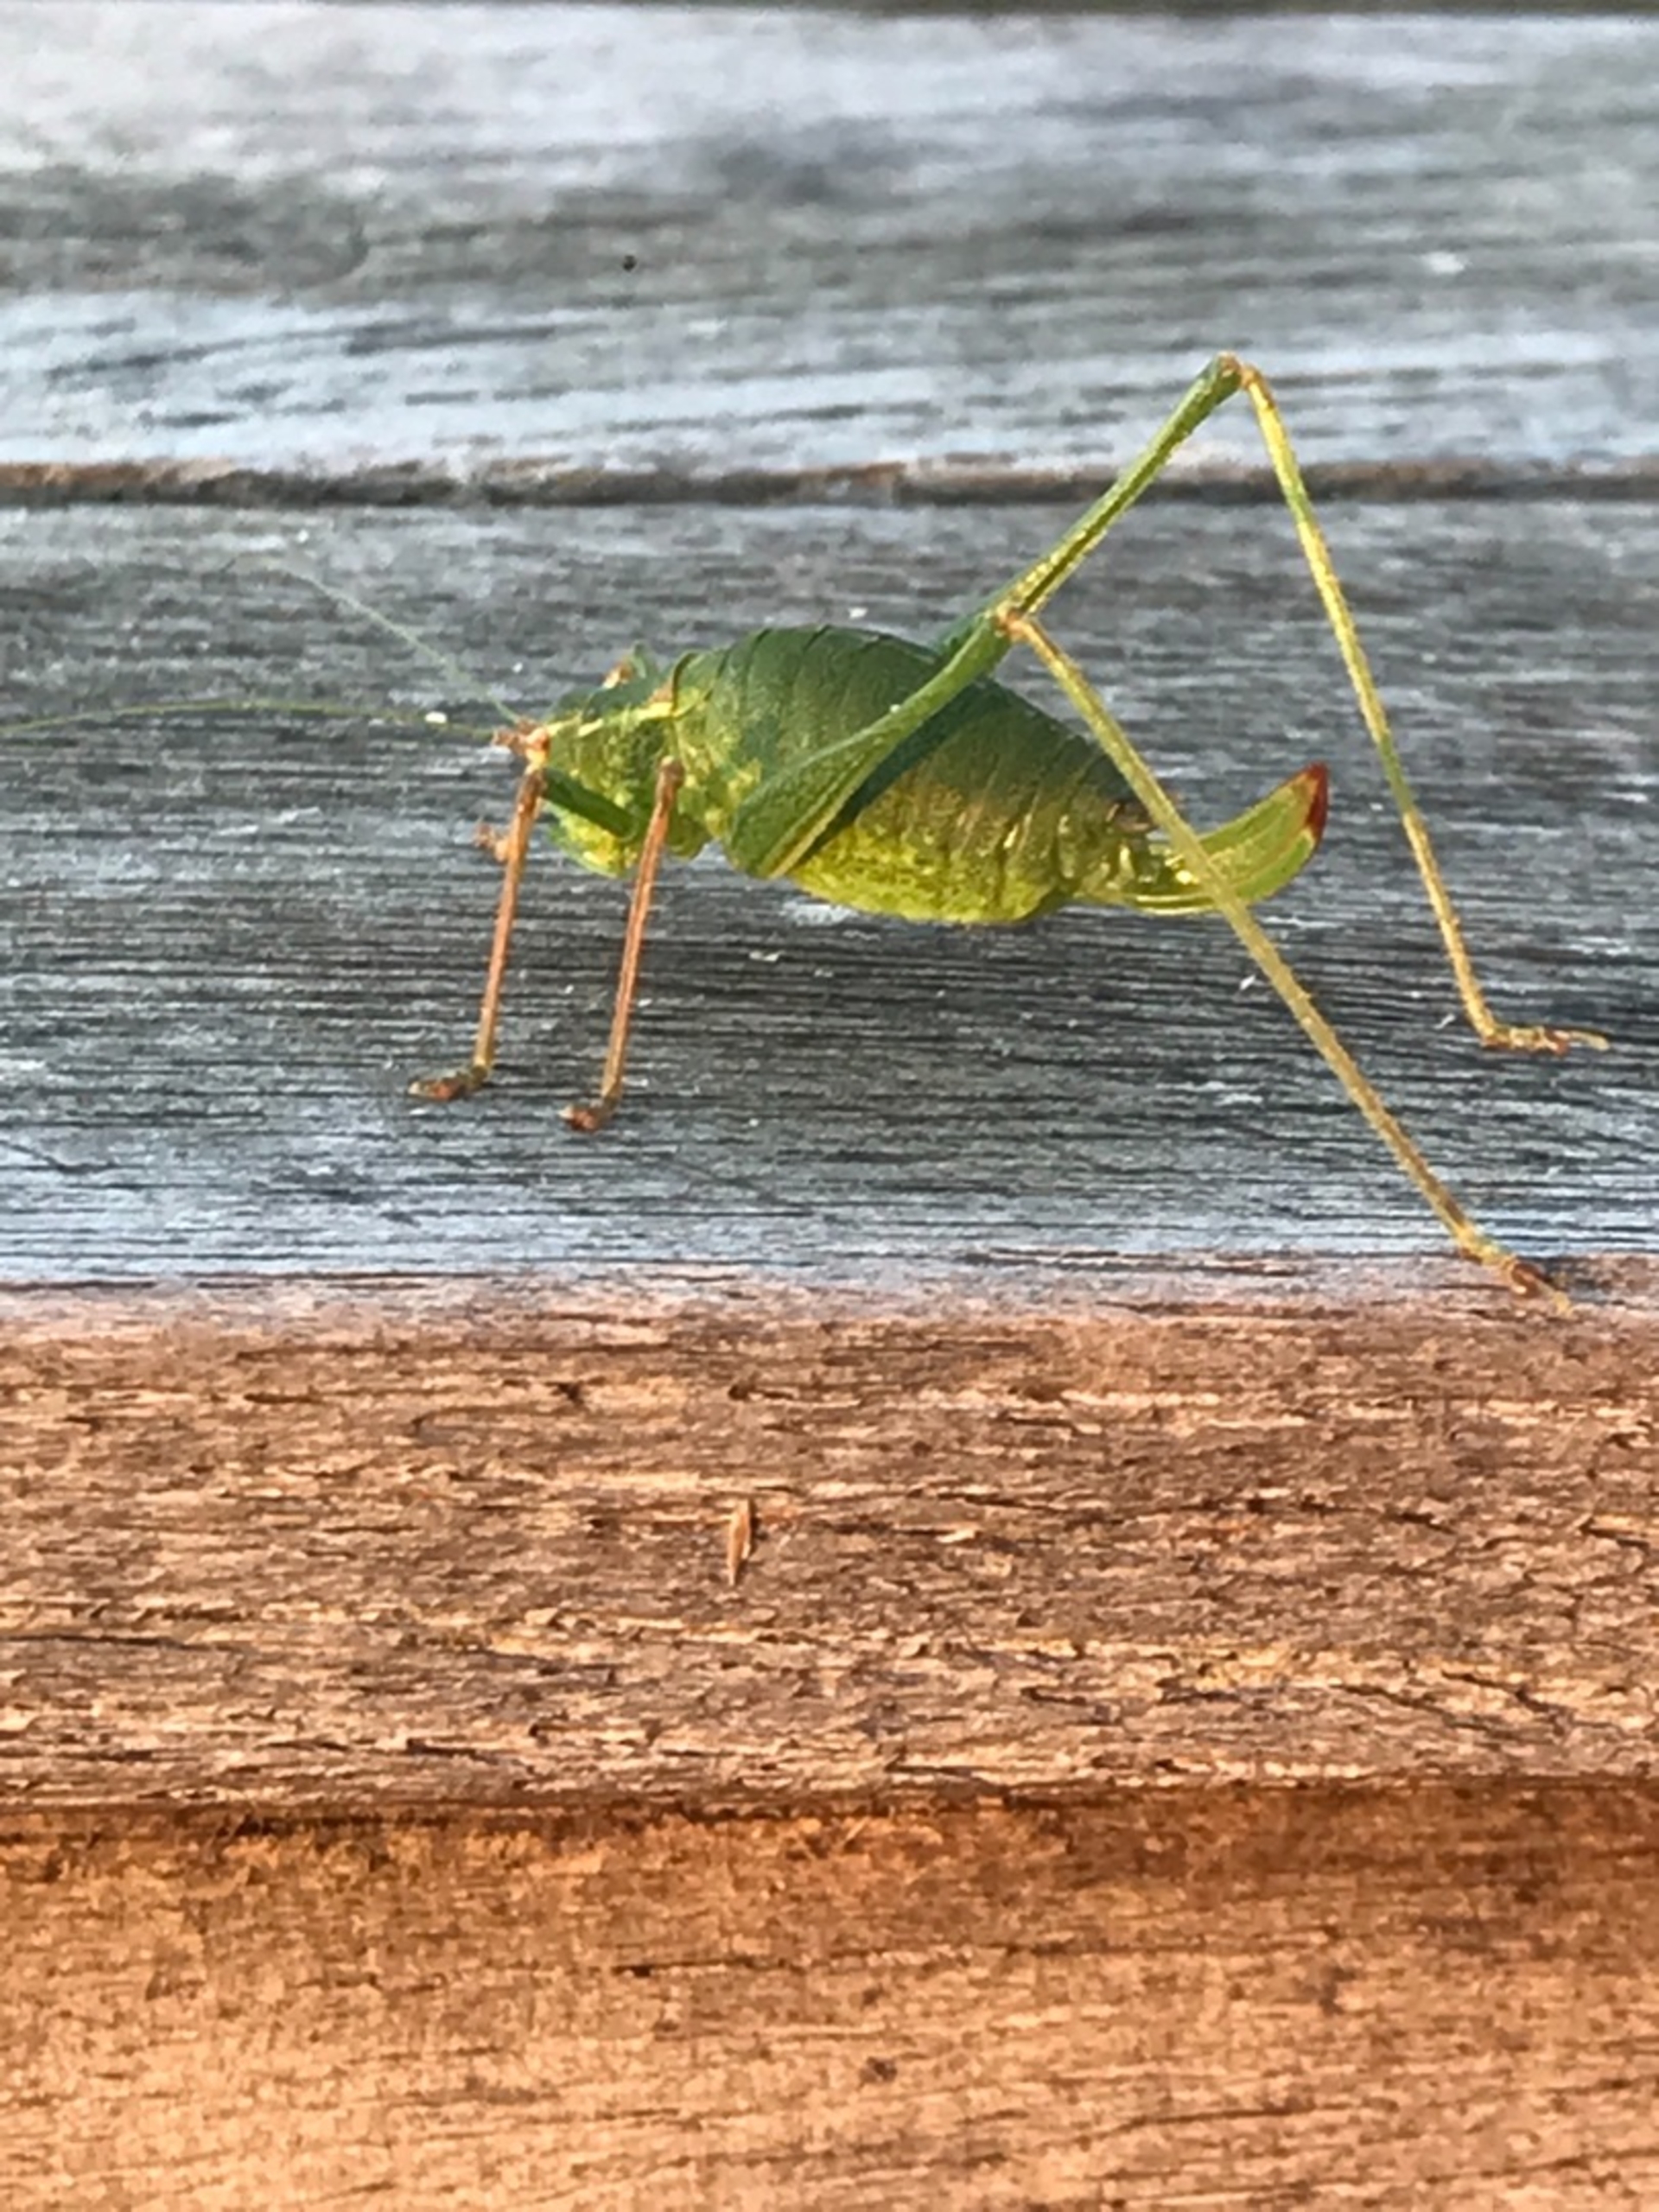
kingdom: Animalia
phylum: Arthropoda
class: Insecta
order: Orthoptera
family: Tettigoniidae
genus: Leptophyes
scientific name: Leptophyes punctatissima
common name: Krumknivgræshoppe
